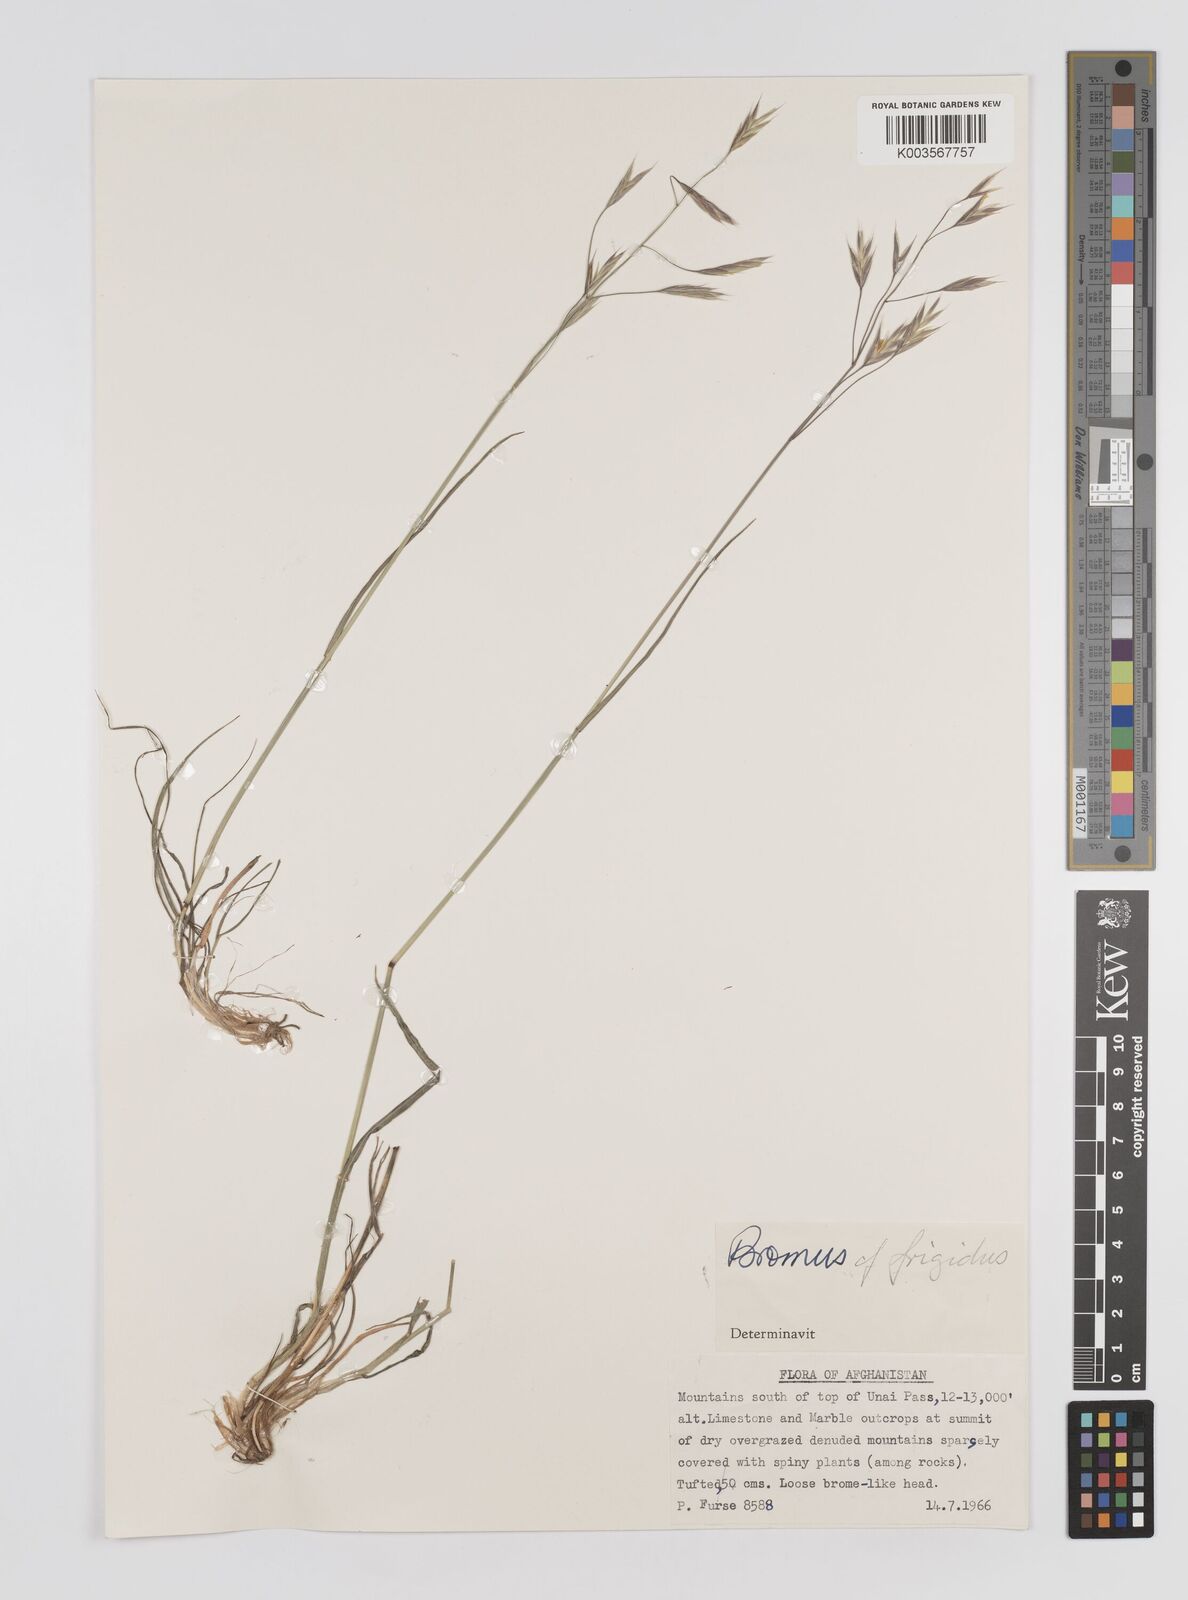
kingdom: Plantae
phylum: Tracheophyta
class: Liliopsida
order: Poales
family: Poaceae
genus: Bromus
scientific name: Bromus
